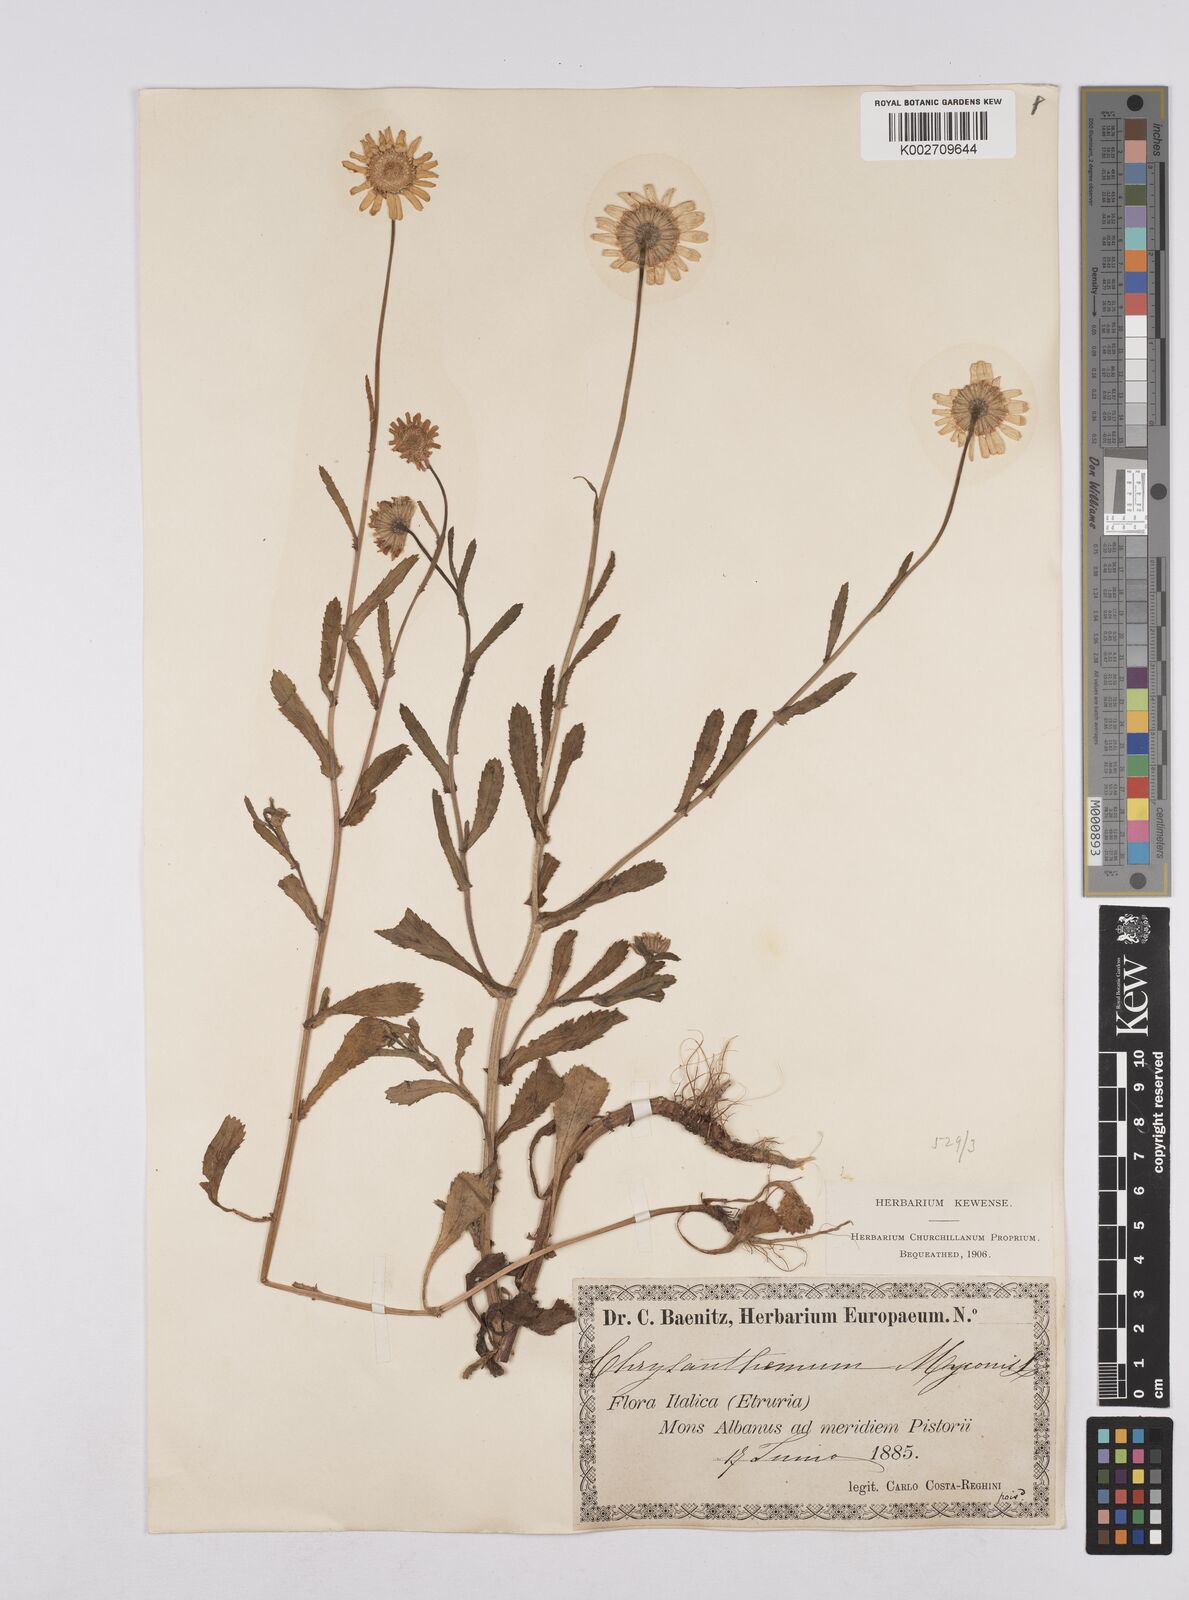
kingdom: Plantae
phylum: Tracheophyta
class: Magnoliopsida
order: Asterales
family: Asteraceae
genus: Coleostephus
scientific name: Coleostephus myconis
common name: Mediterranean marigold
